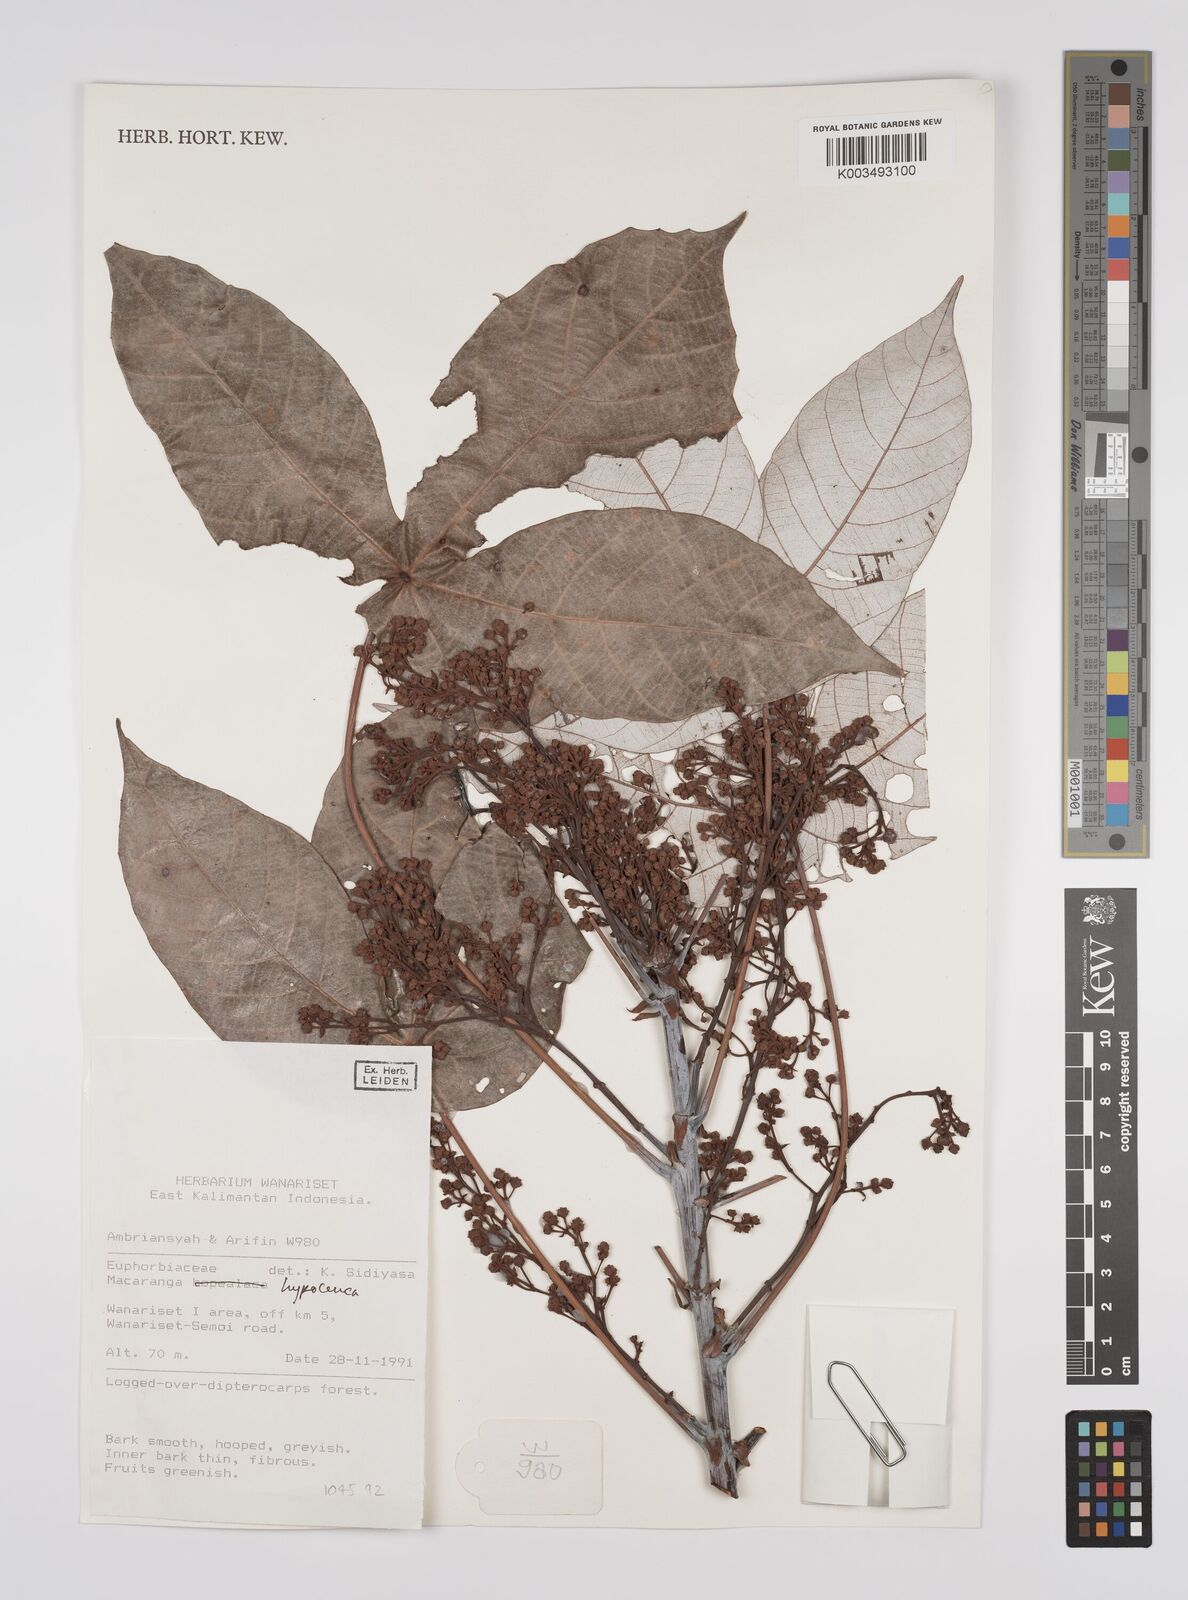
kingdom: Plantae
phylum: Tracheophyta
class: Magnoliopsida
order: Malpighiales
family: Euphorbiaceae
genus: Macaranga
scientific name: Macaranga hypoleuca
